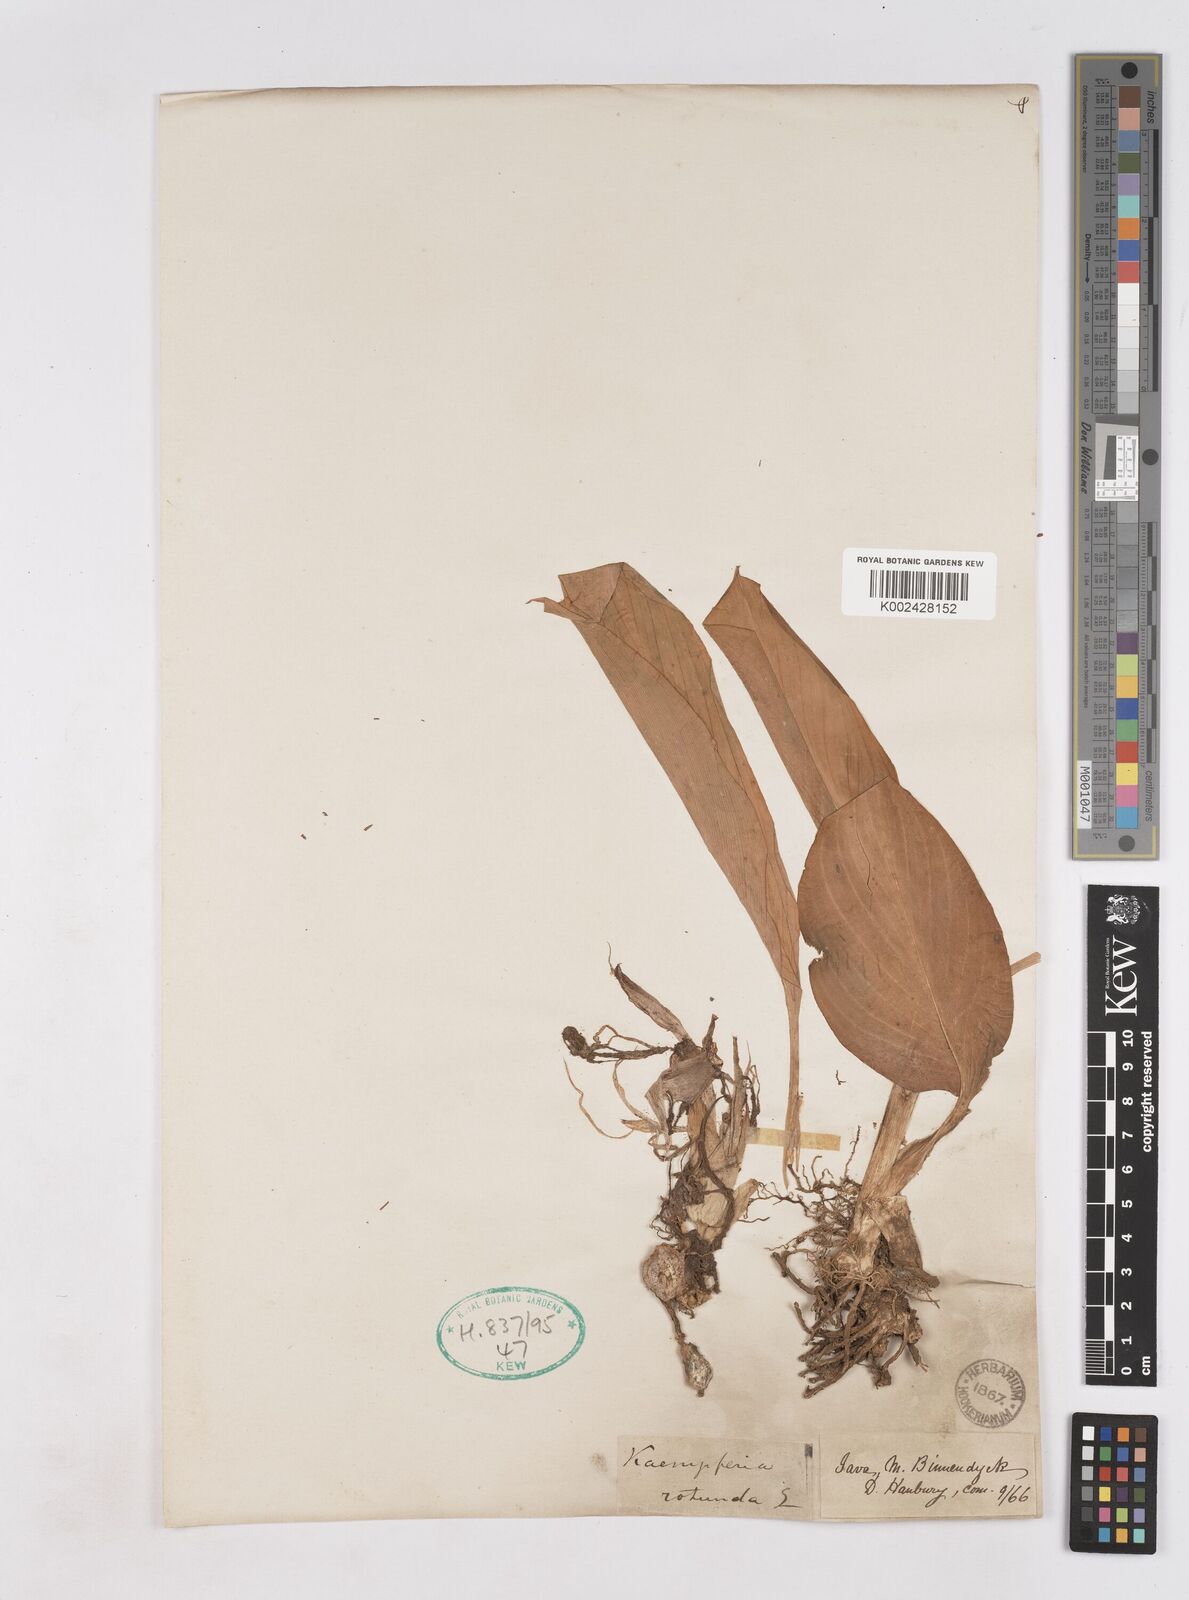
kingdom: Plantae
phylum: Tracheophyta
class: Liliopsida
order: Zingiberales
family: Zingiberaceae
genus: Kaempferia
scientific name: Kaempferia rotunda
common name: Tropical-crocus
